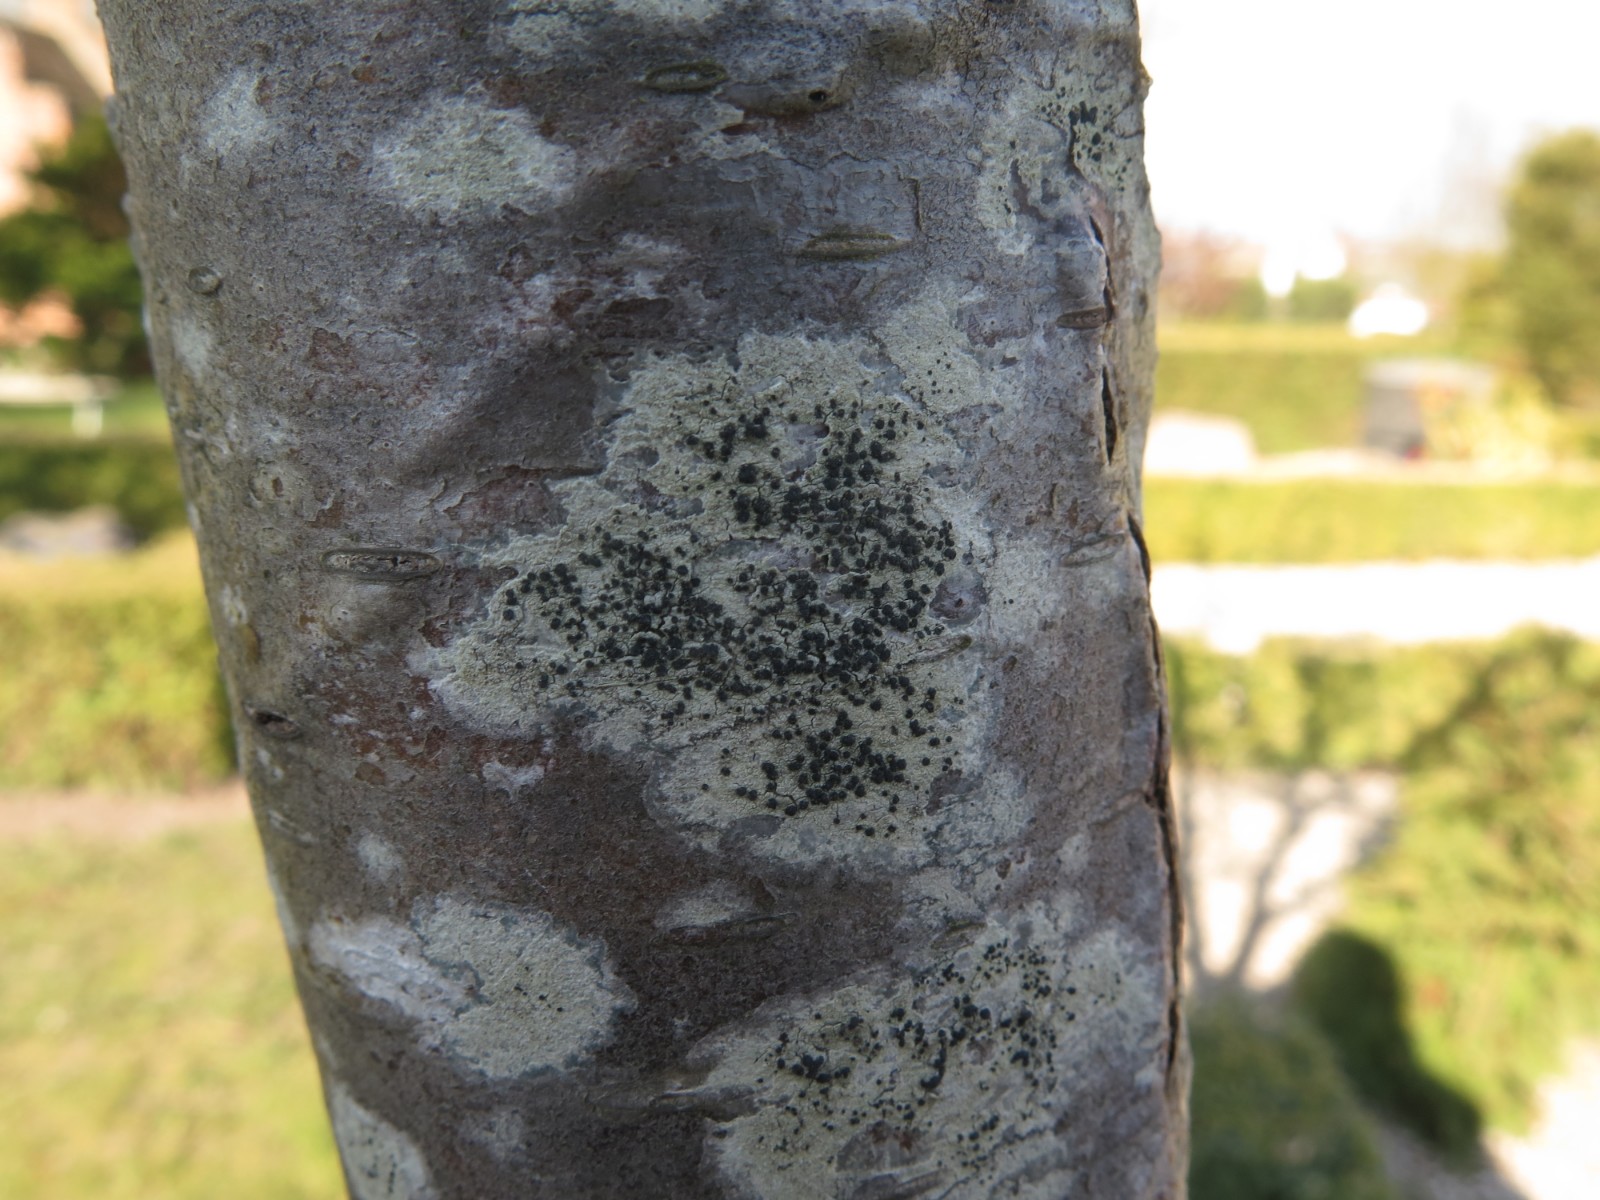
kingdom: Fungi
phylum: Ascomycota
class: Lecanoromycetes
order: Lecanorales
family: Lecanoraceae
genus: Lecidella
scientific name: Lecidella elaeochroma
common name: grågrøn skivelav
